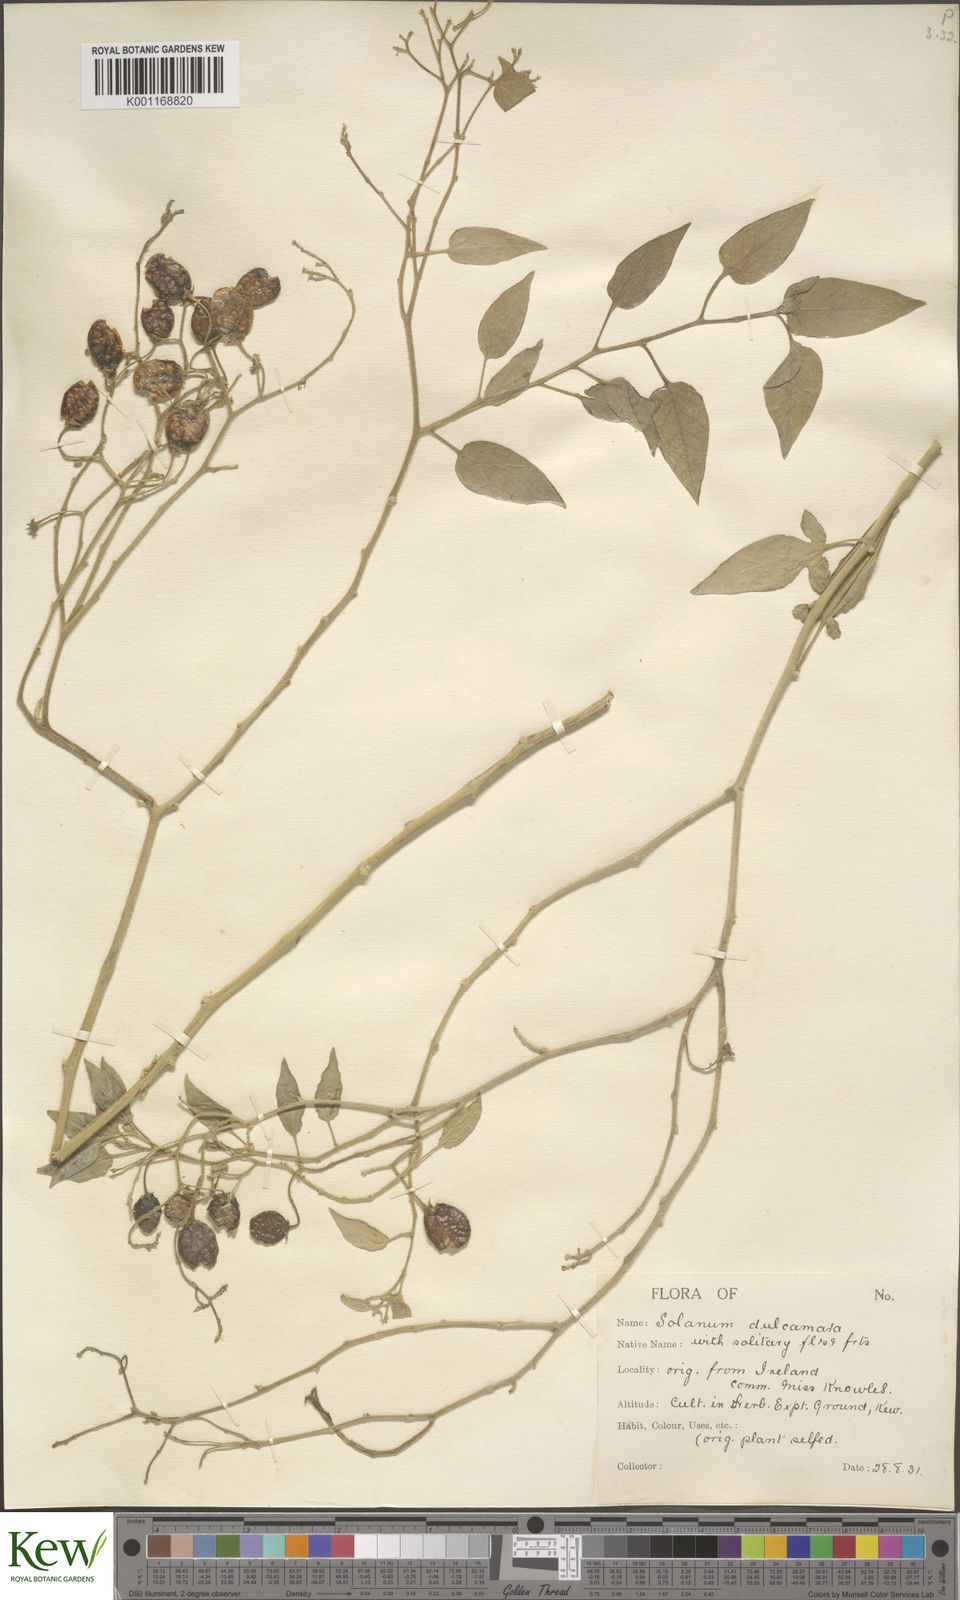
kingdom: Plantae
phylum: Tracheophyta
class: Magnoliopsida
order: Solanales
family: Solanaceae
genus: Solanum
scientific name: Solanum dulcamara
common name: Climbing nightshade
